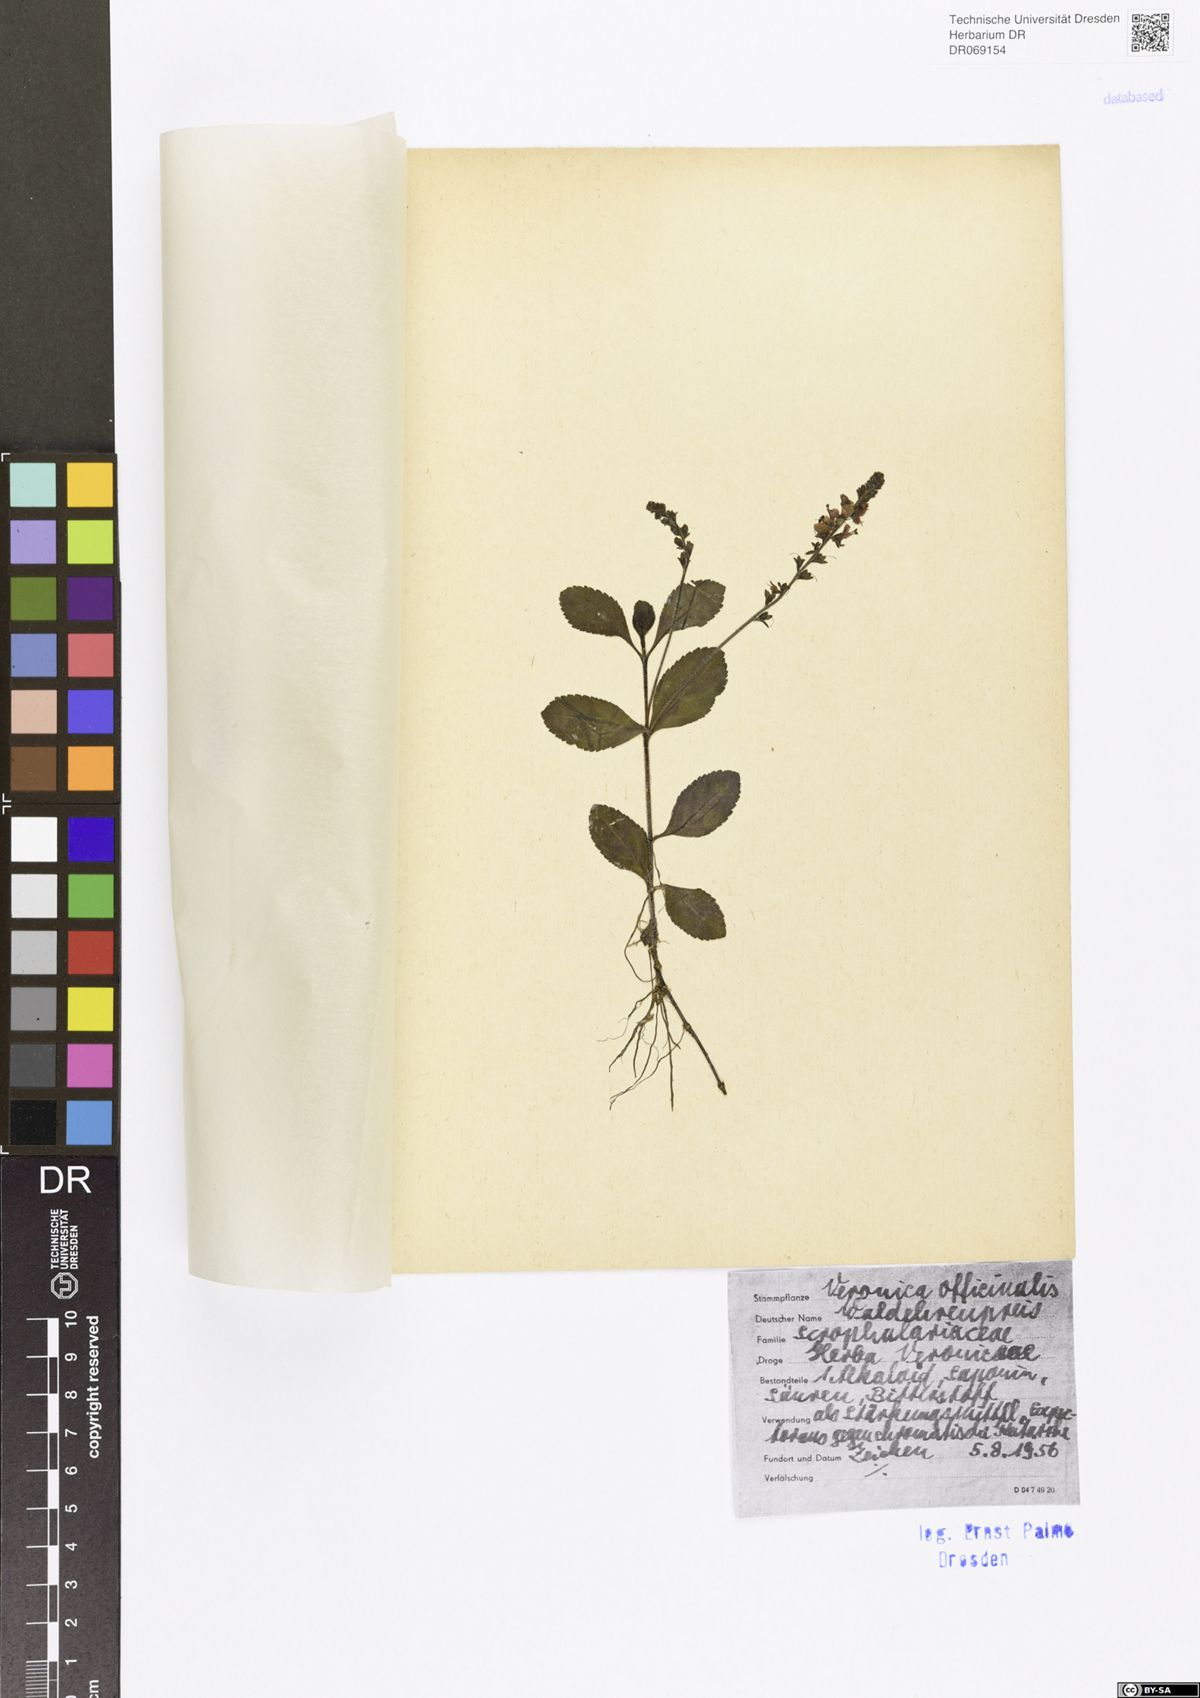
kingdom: Plantae
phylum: Tracheophyta
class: Magnoliopsida
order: Lamiales
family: Plantaginaceae
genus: Veronica
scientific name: Veronica officinalis
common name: Common speedwell
